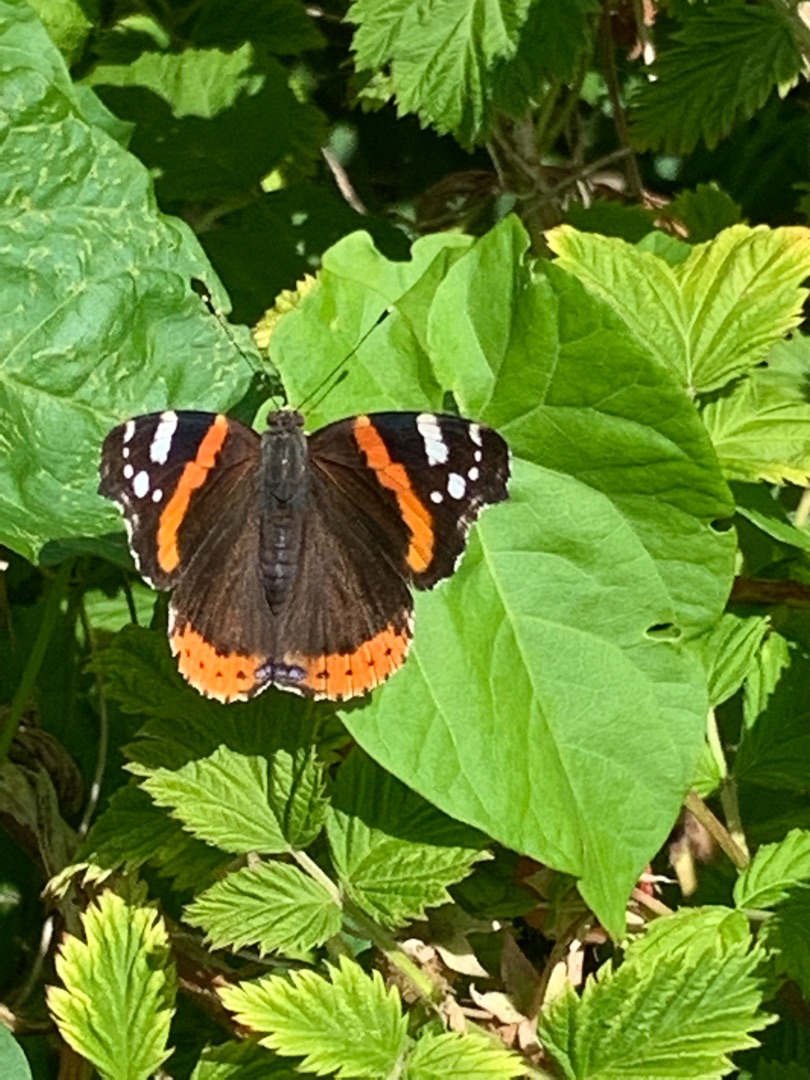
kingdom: Animalia
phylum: Arthropoda
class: Insecta
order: Lepidoptera
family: Nymphalidae
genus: Vanessa
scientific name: Vanessa atalanta
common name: Admiral
